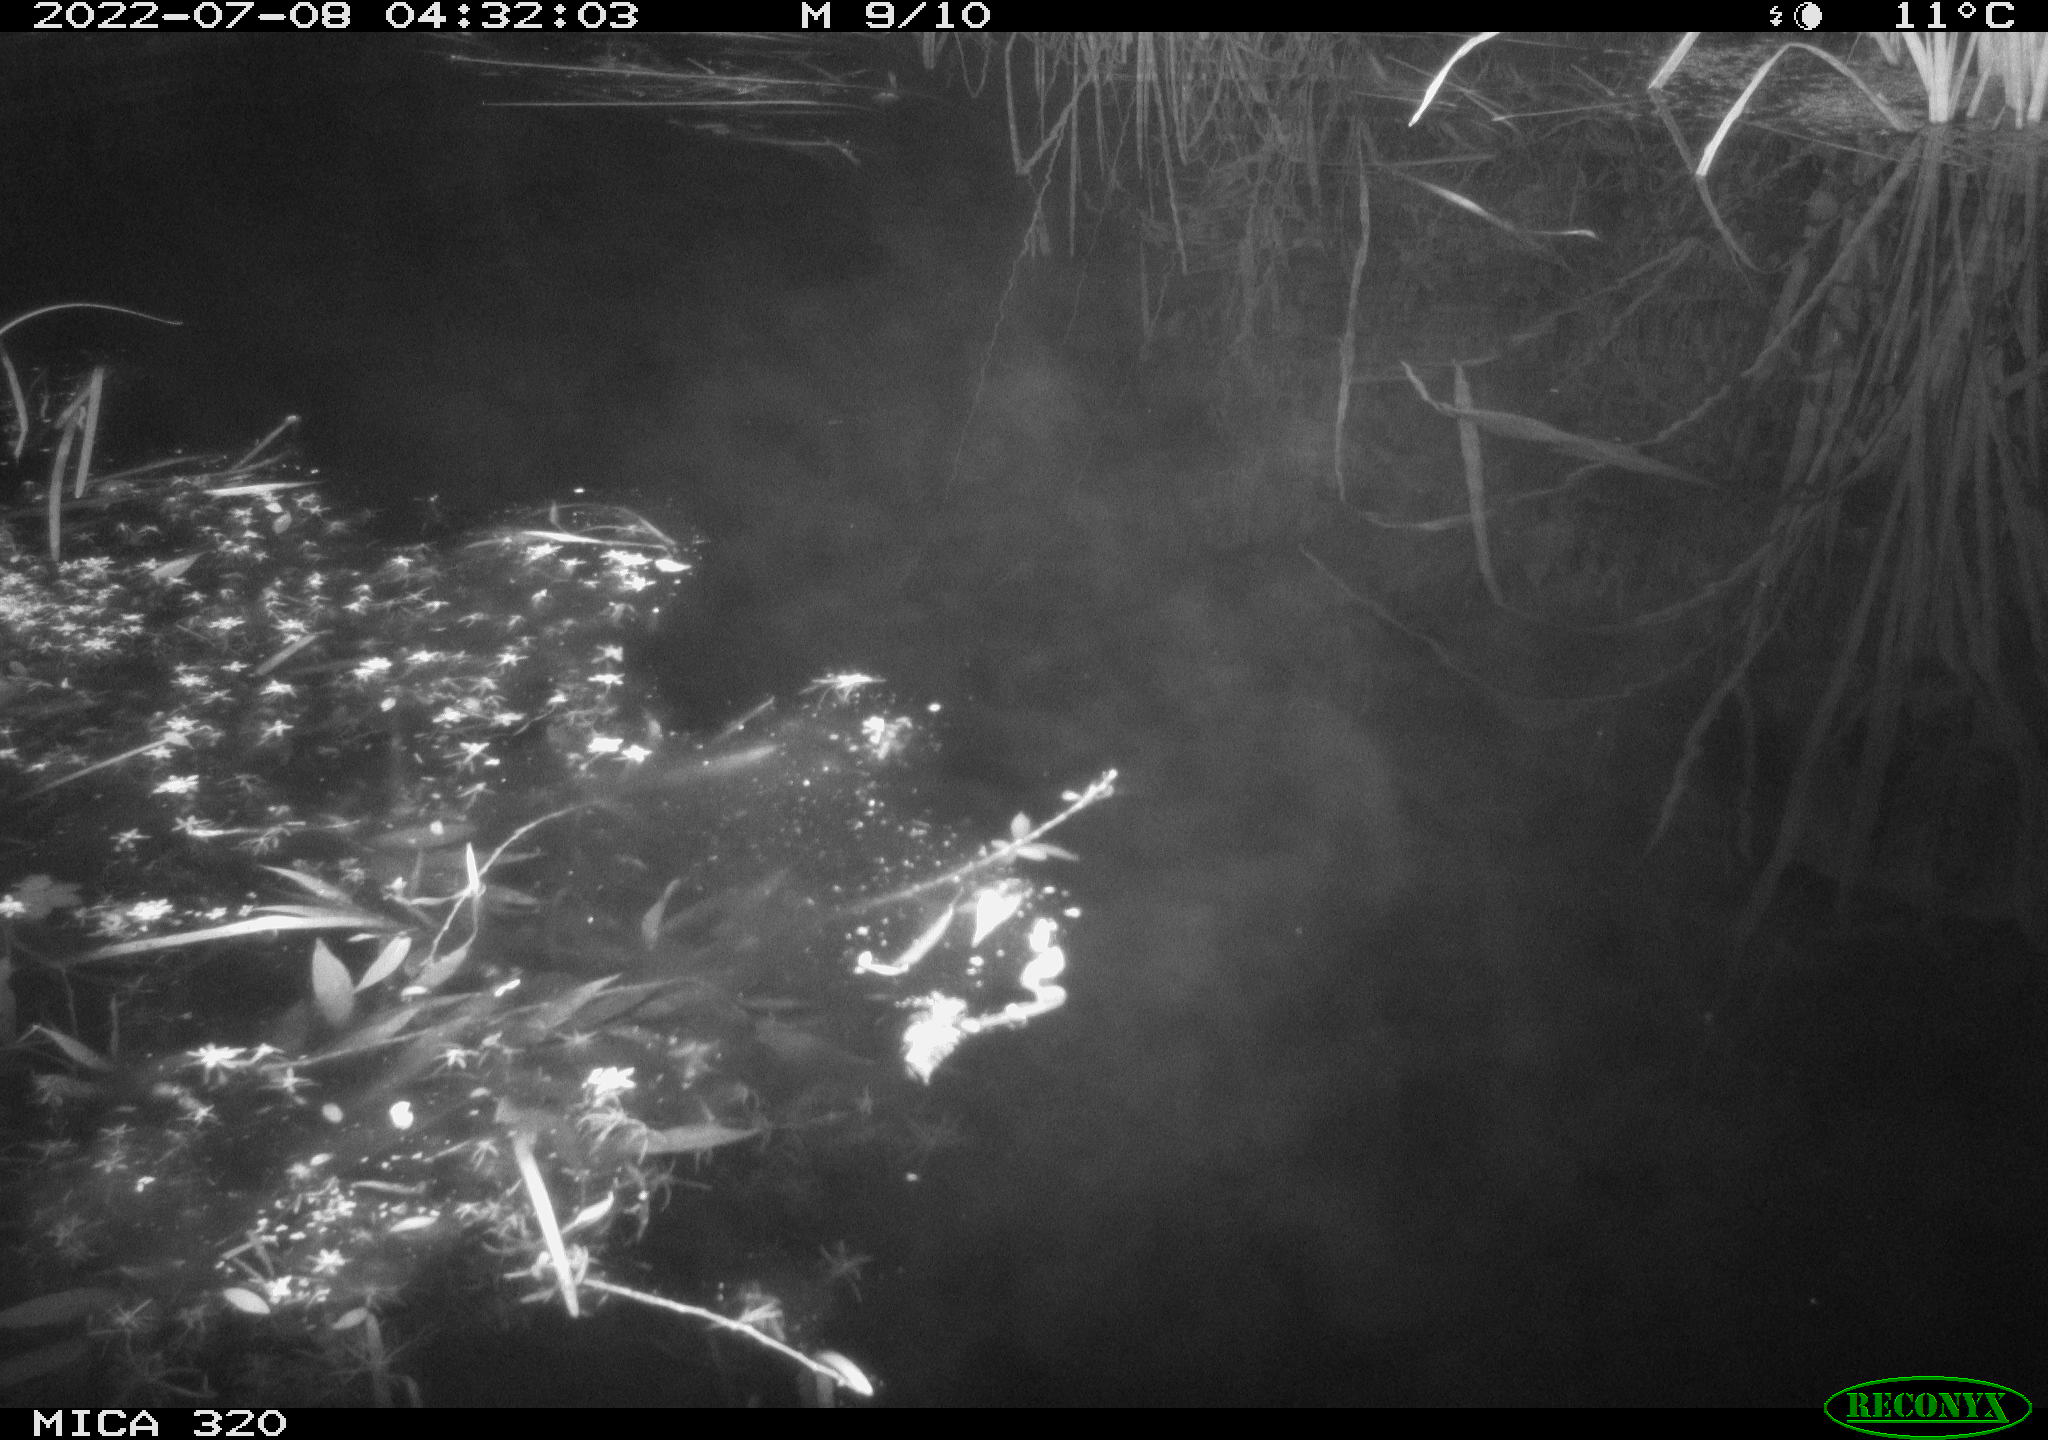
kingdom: Animalia
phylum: Chordata
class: Aves
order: Anseriformes
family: Anatidae
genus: Anas
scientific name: Anas platyrhynchos
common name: Mallard
